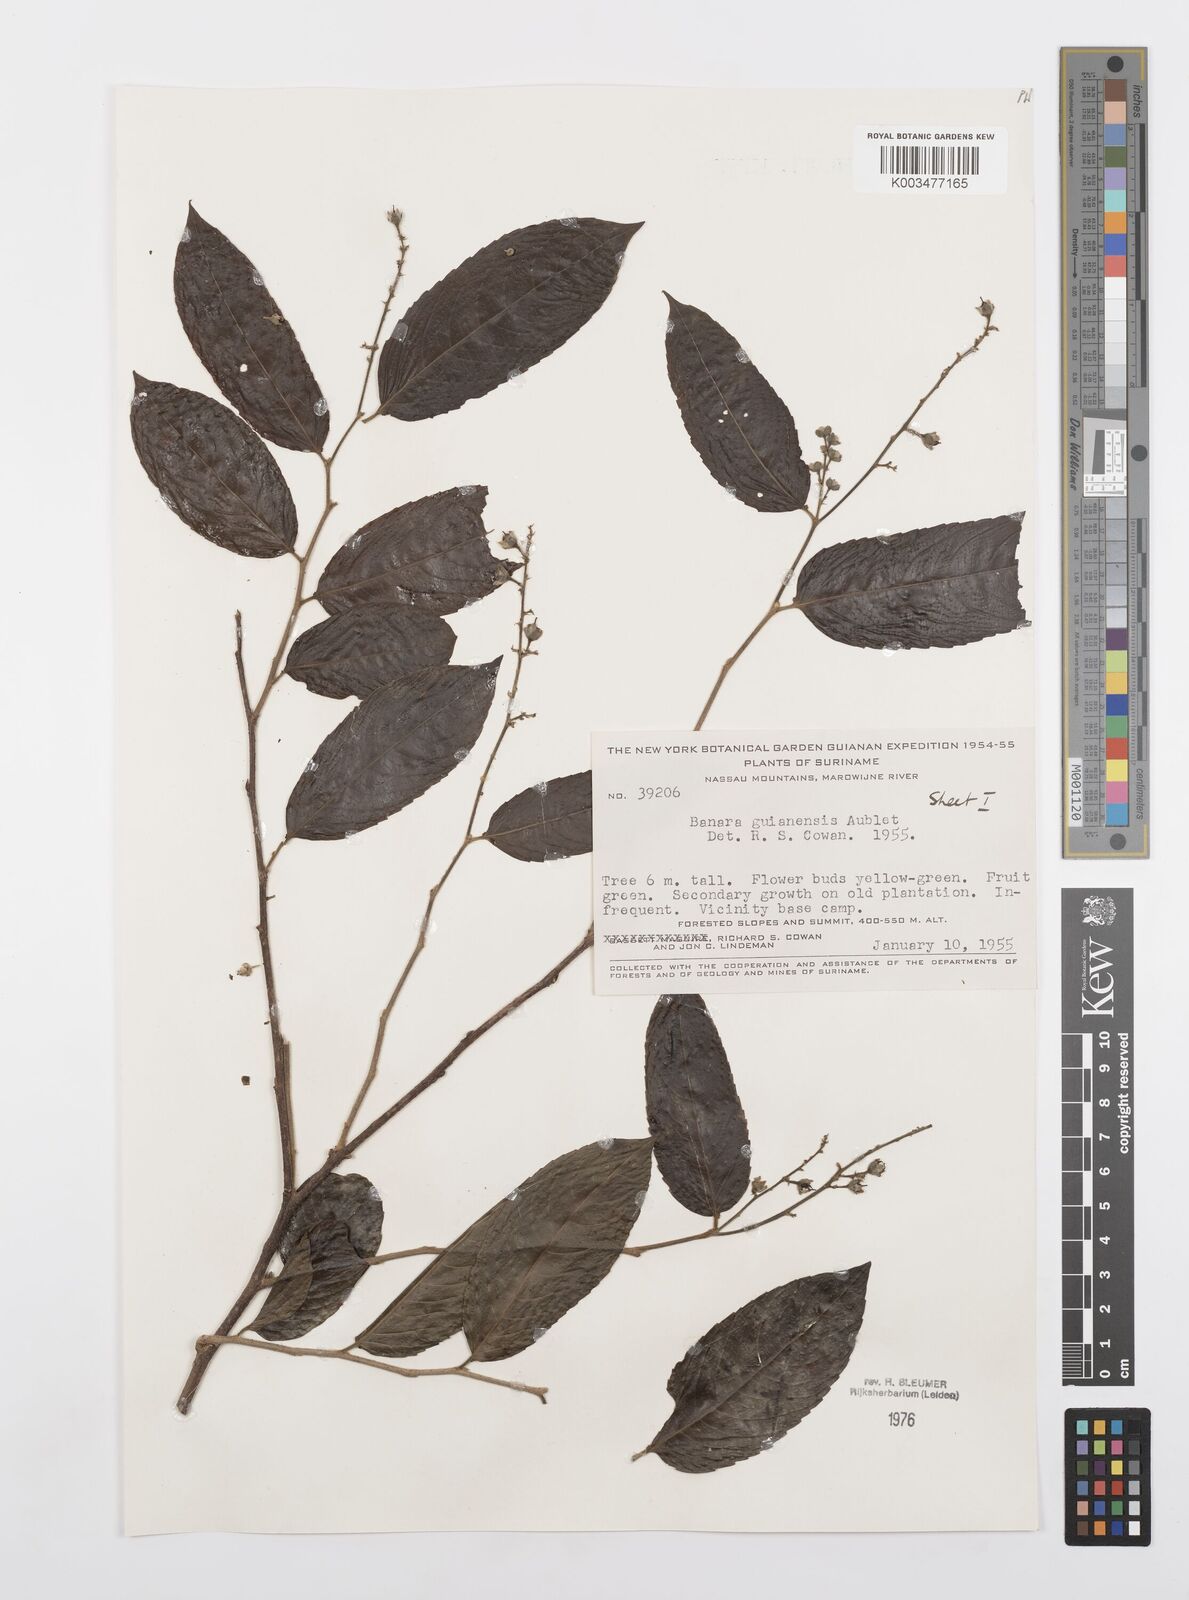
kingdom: Plantae
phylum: Tracheophyta
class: Magnoliopsida
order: Malpighiales
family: Salicaceae
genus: Banara
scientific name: Banara guianensis
